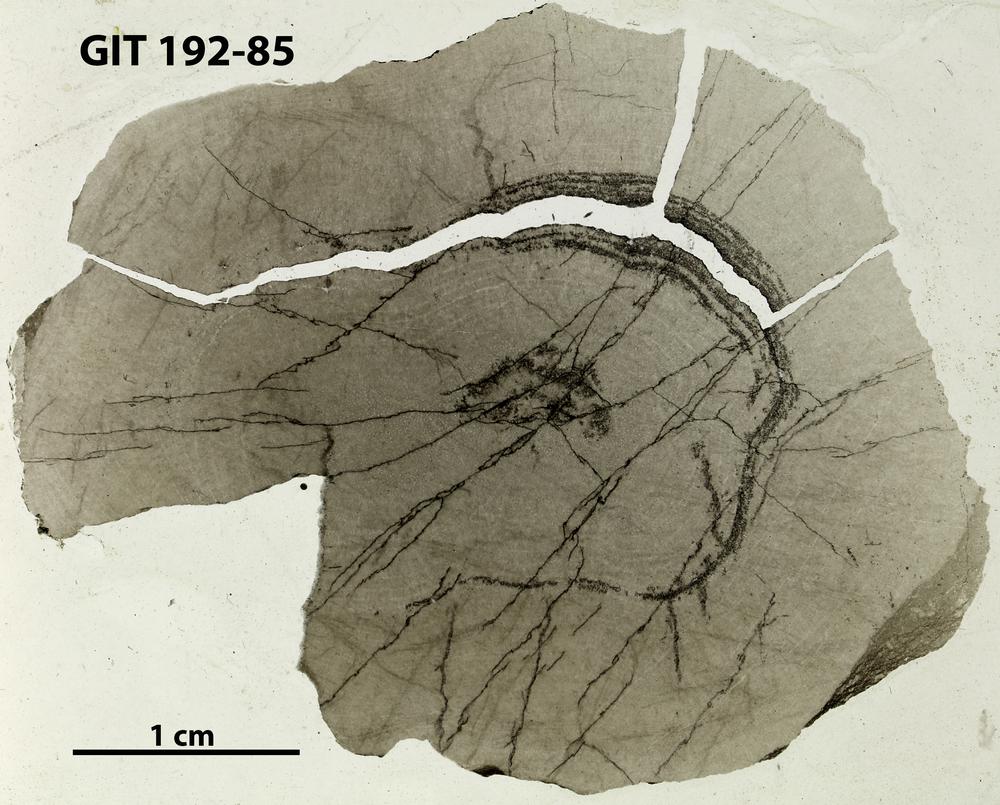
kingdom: Animalia
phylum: Porifera
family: Densastromatidae
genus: Densastroma
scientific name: Densastroma
